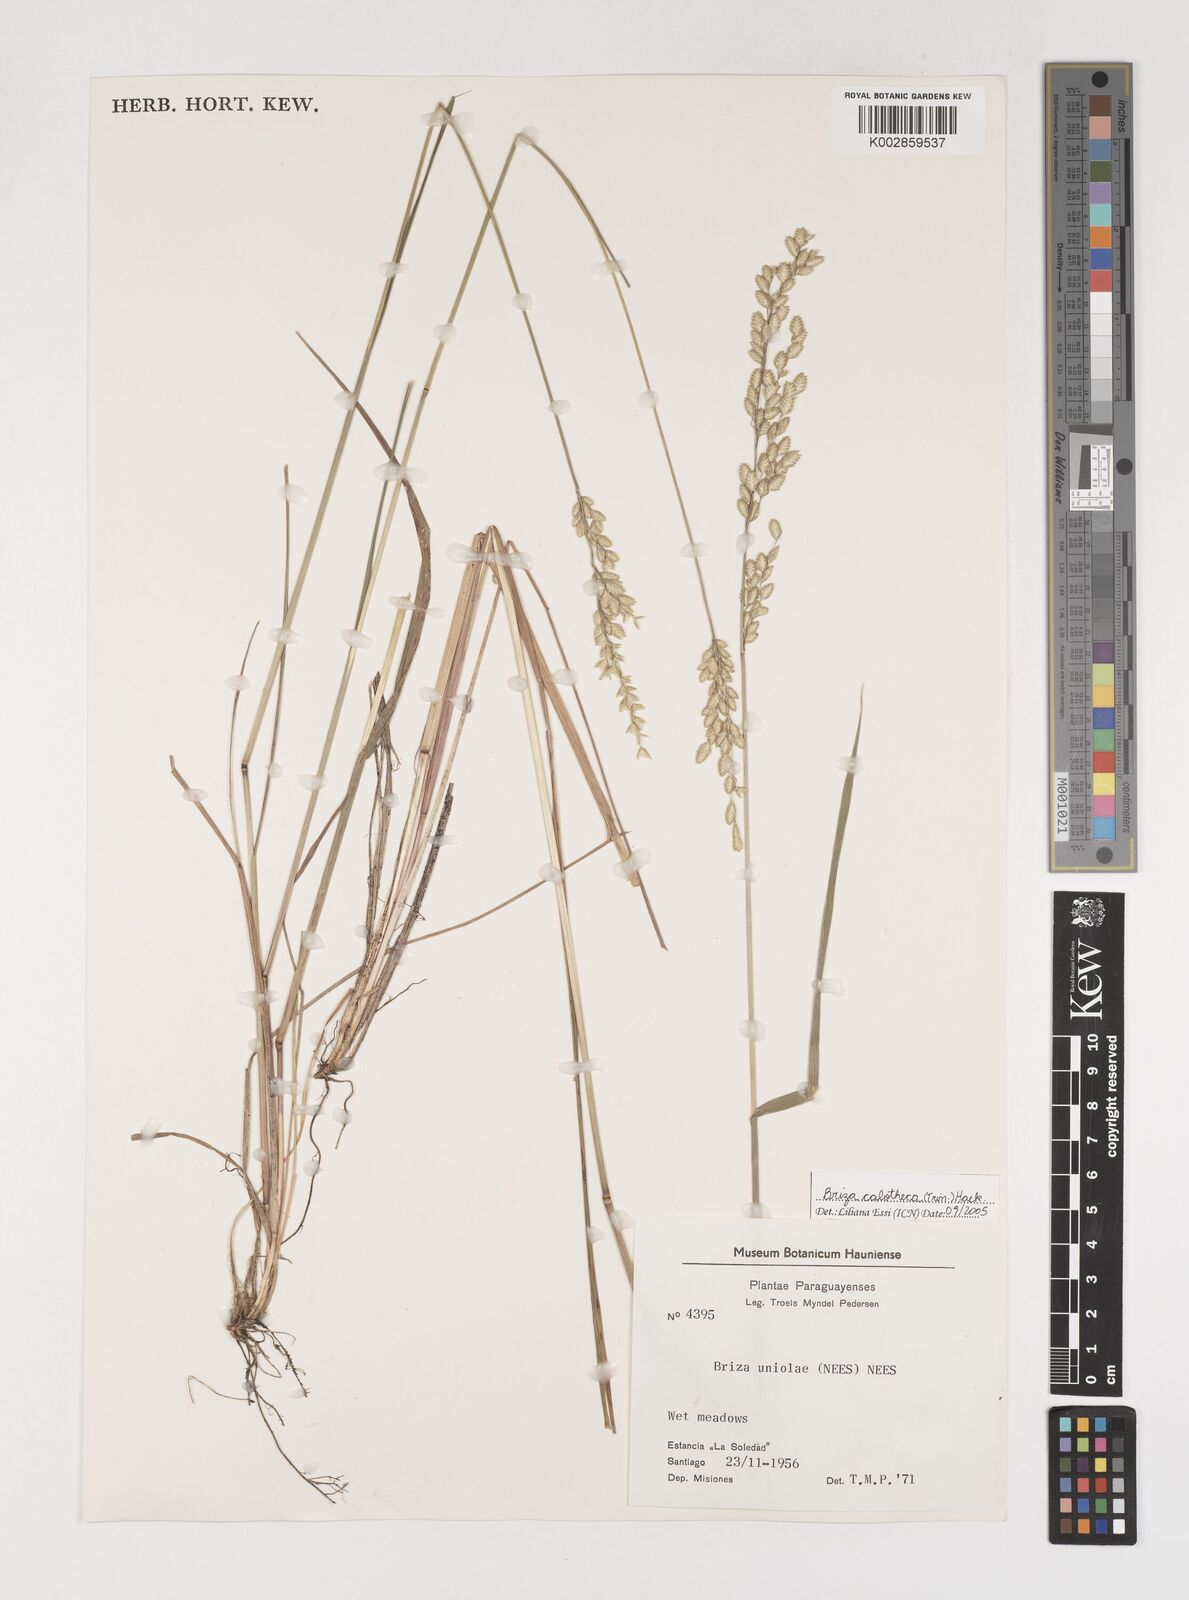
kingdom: Plantae
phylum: Tracheophyta
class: Liliopsida
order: Poales
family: Poaceae
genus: Poidium
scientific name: Poidium calotheca
